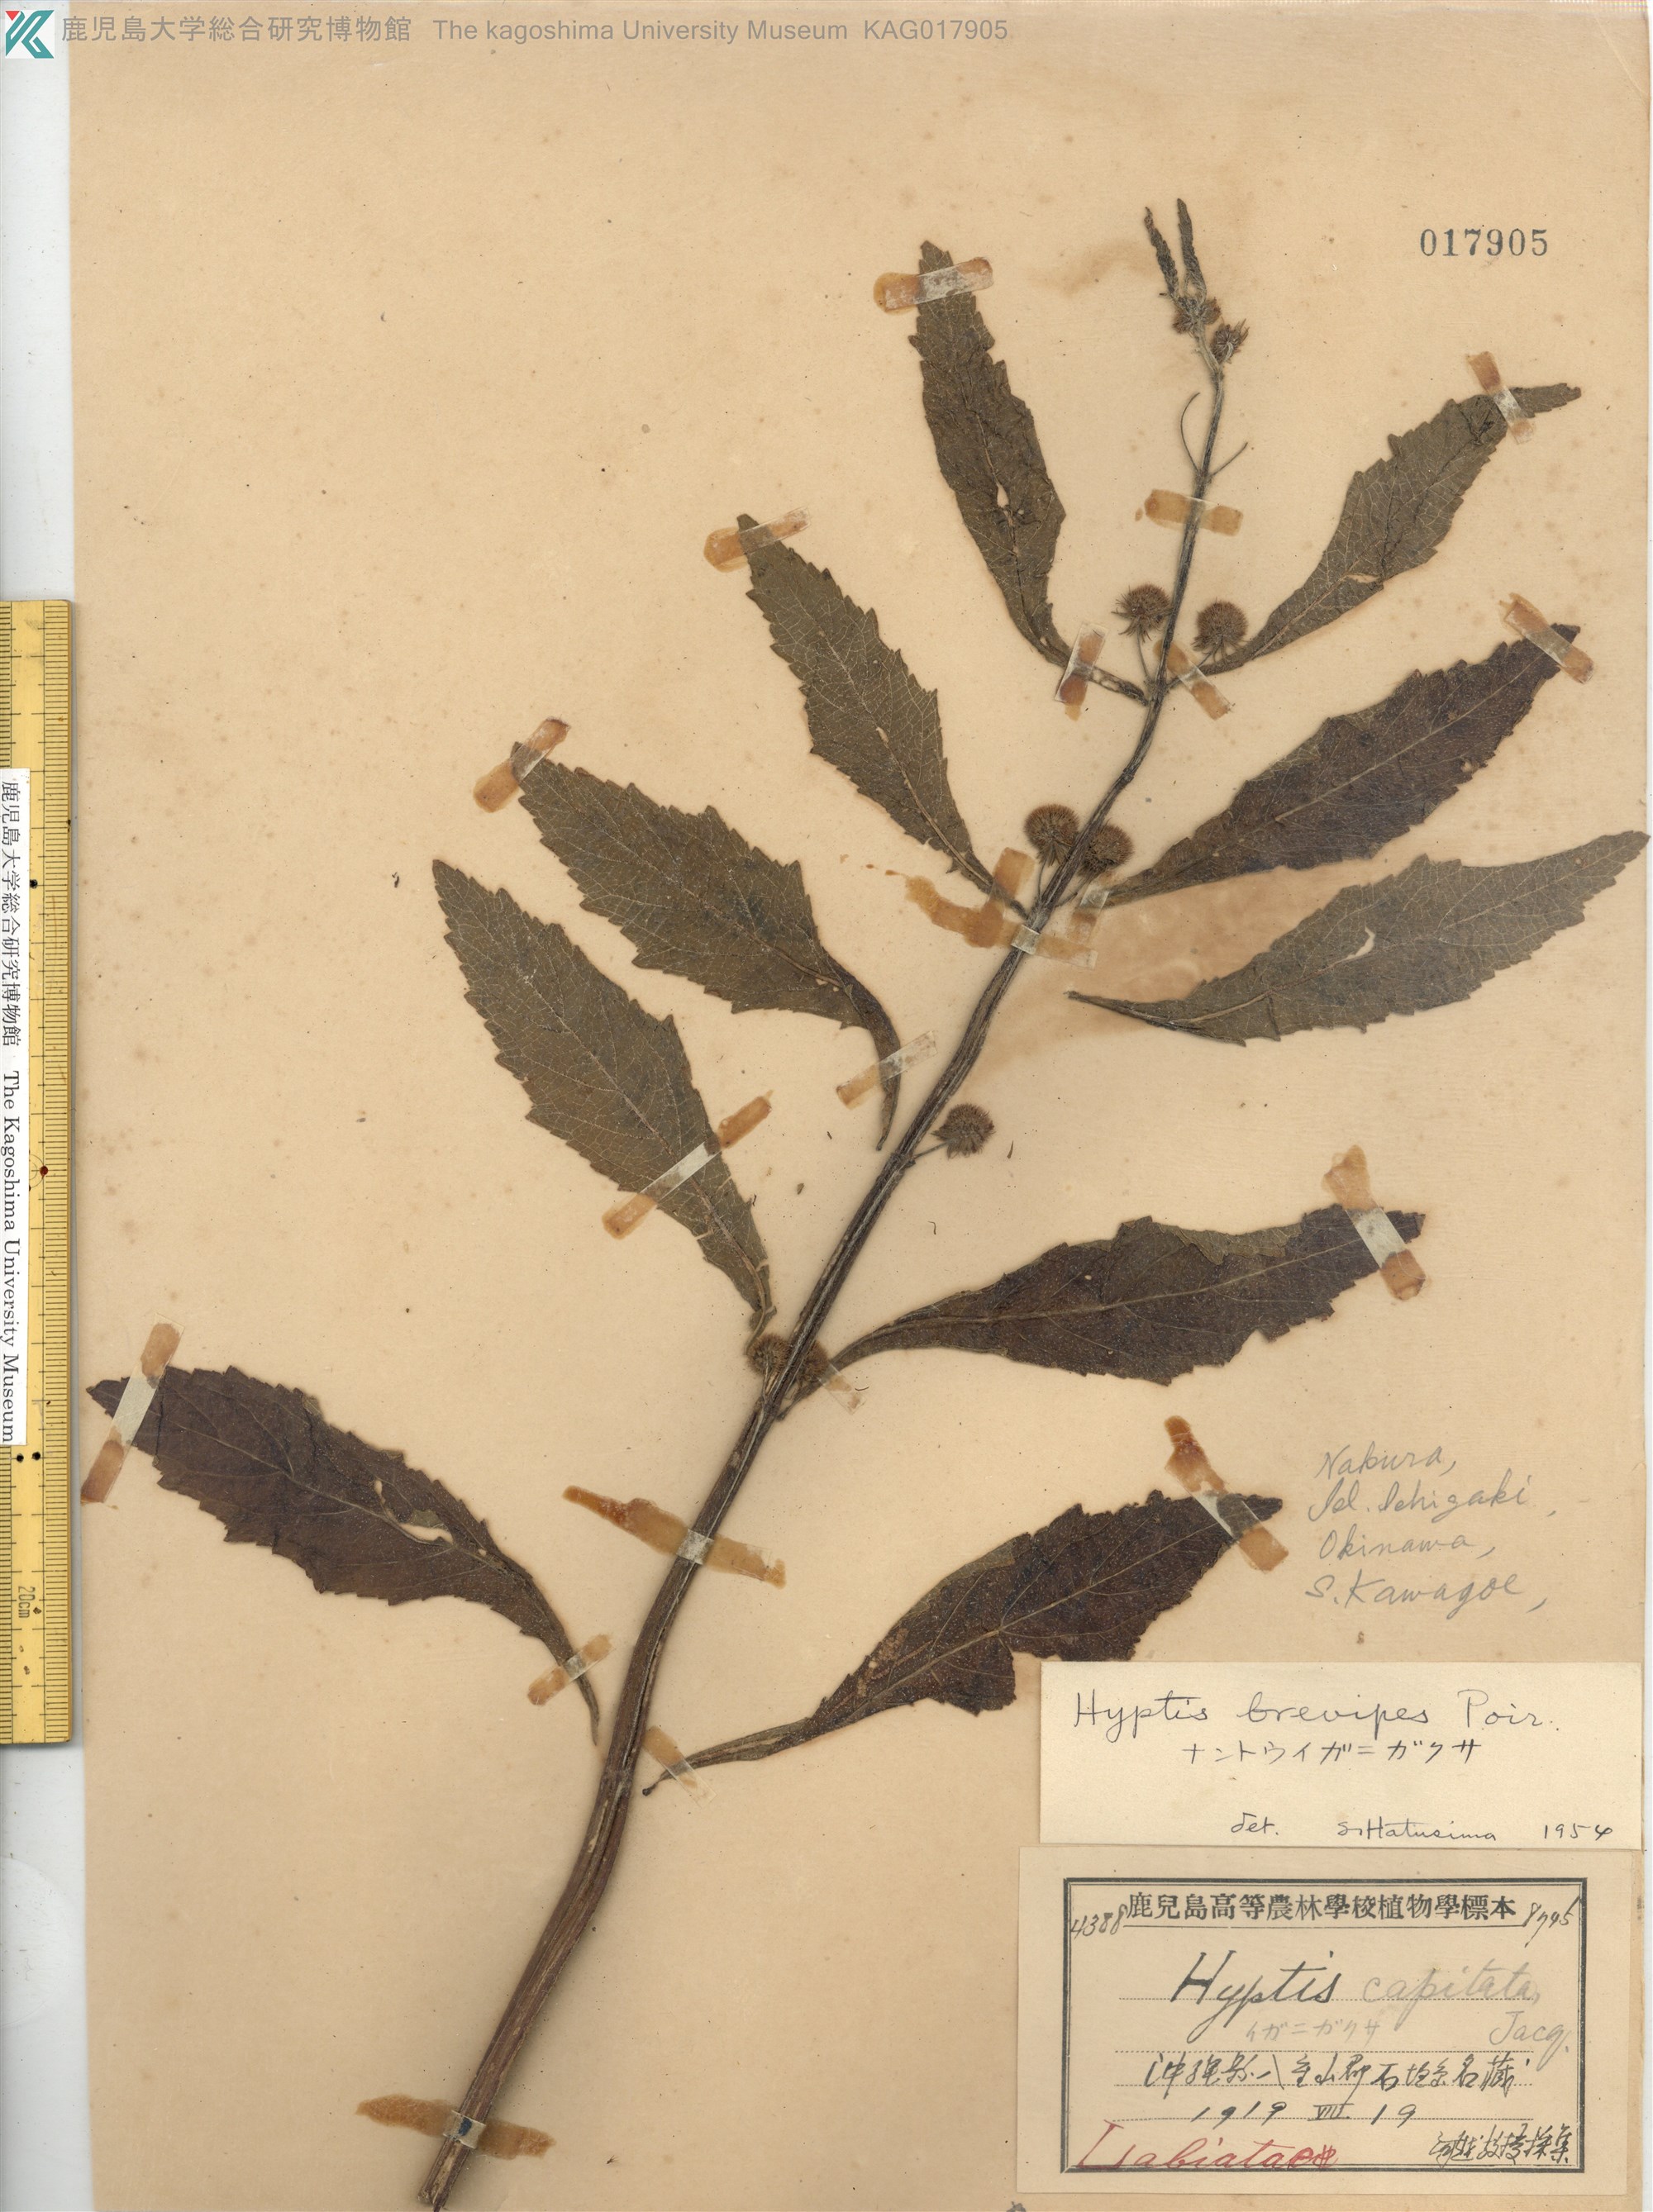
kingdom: Plantae
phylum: Tracheophyta
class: Magnoliopsida
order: Lamiales
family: Lamiaceae
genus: Hyptis
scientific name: Hyptis brevipes
